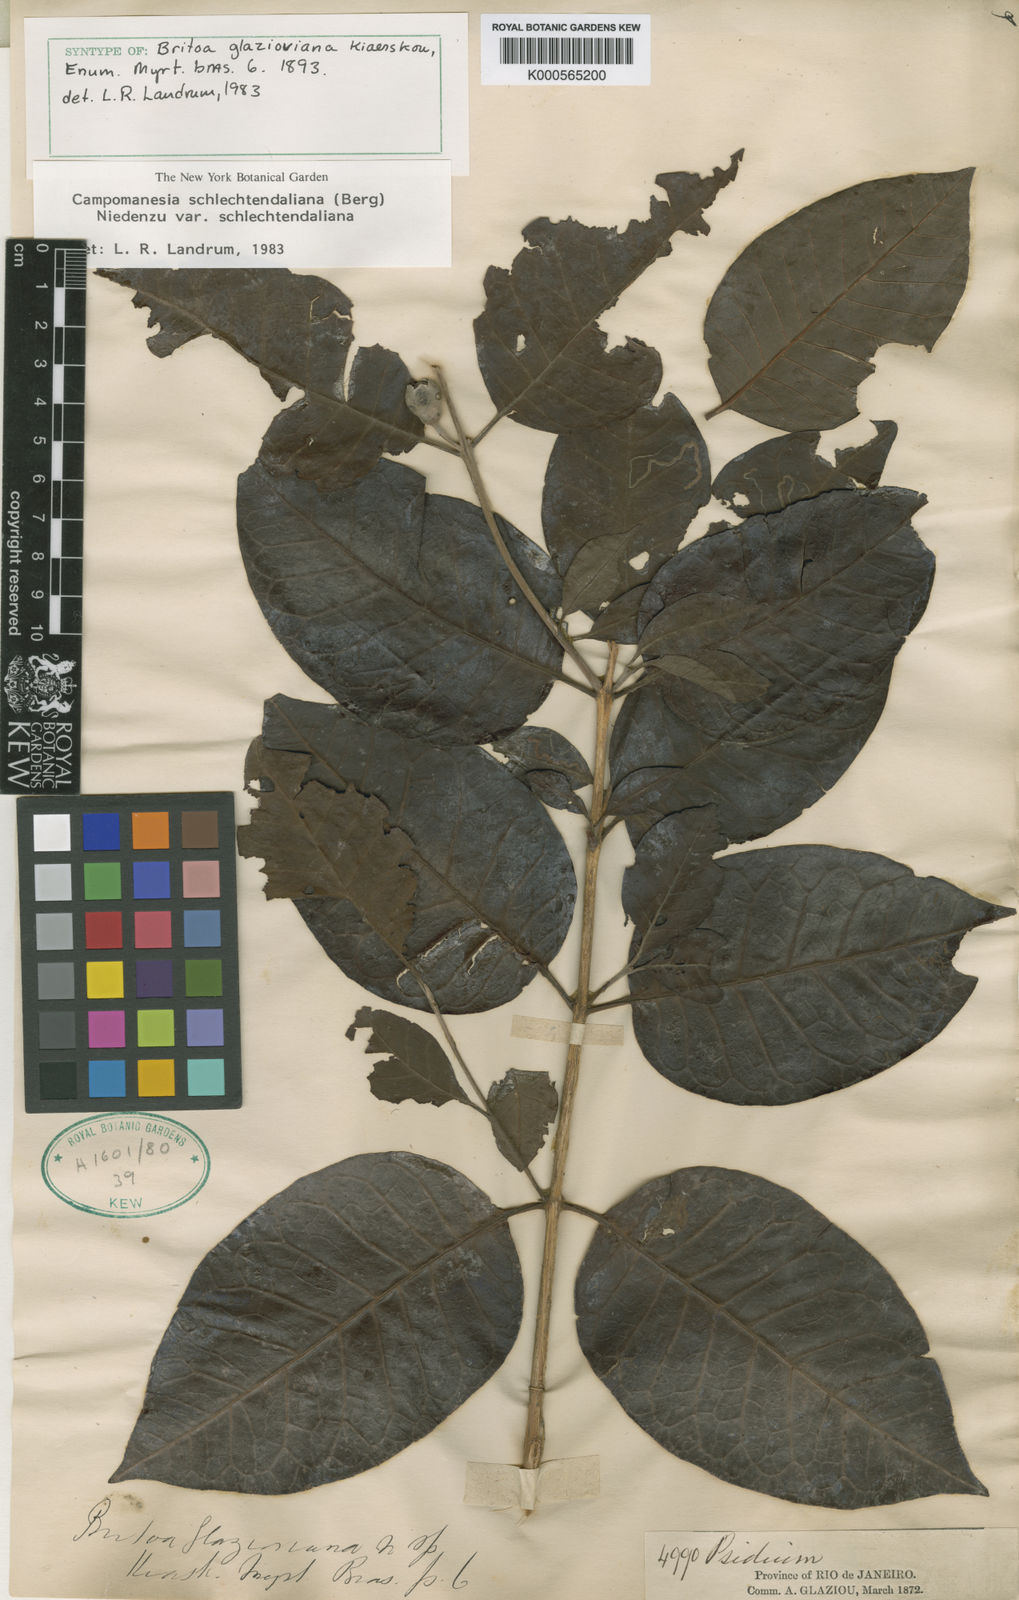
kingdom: Plantae
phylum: Tracheophyta
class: Magnoliopsida
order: Myrtales
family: Myrtaceae
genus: Campomanesia
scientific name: Campomanesia schlechtendaliana
